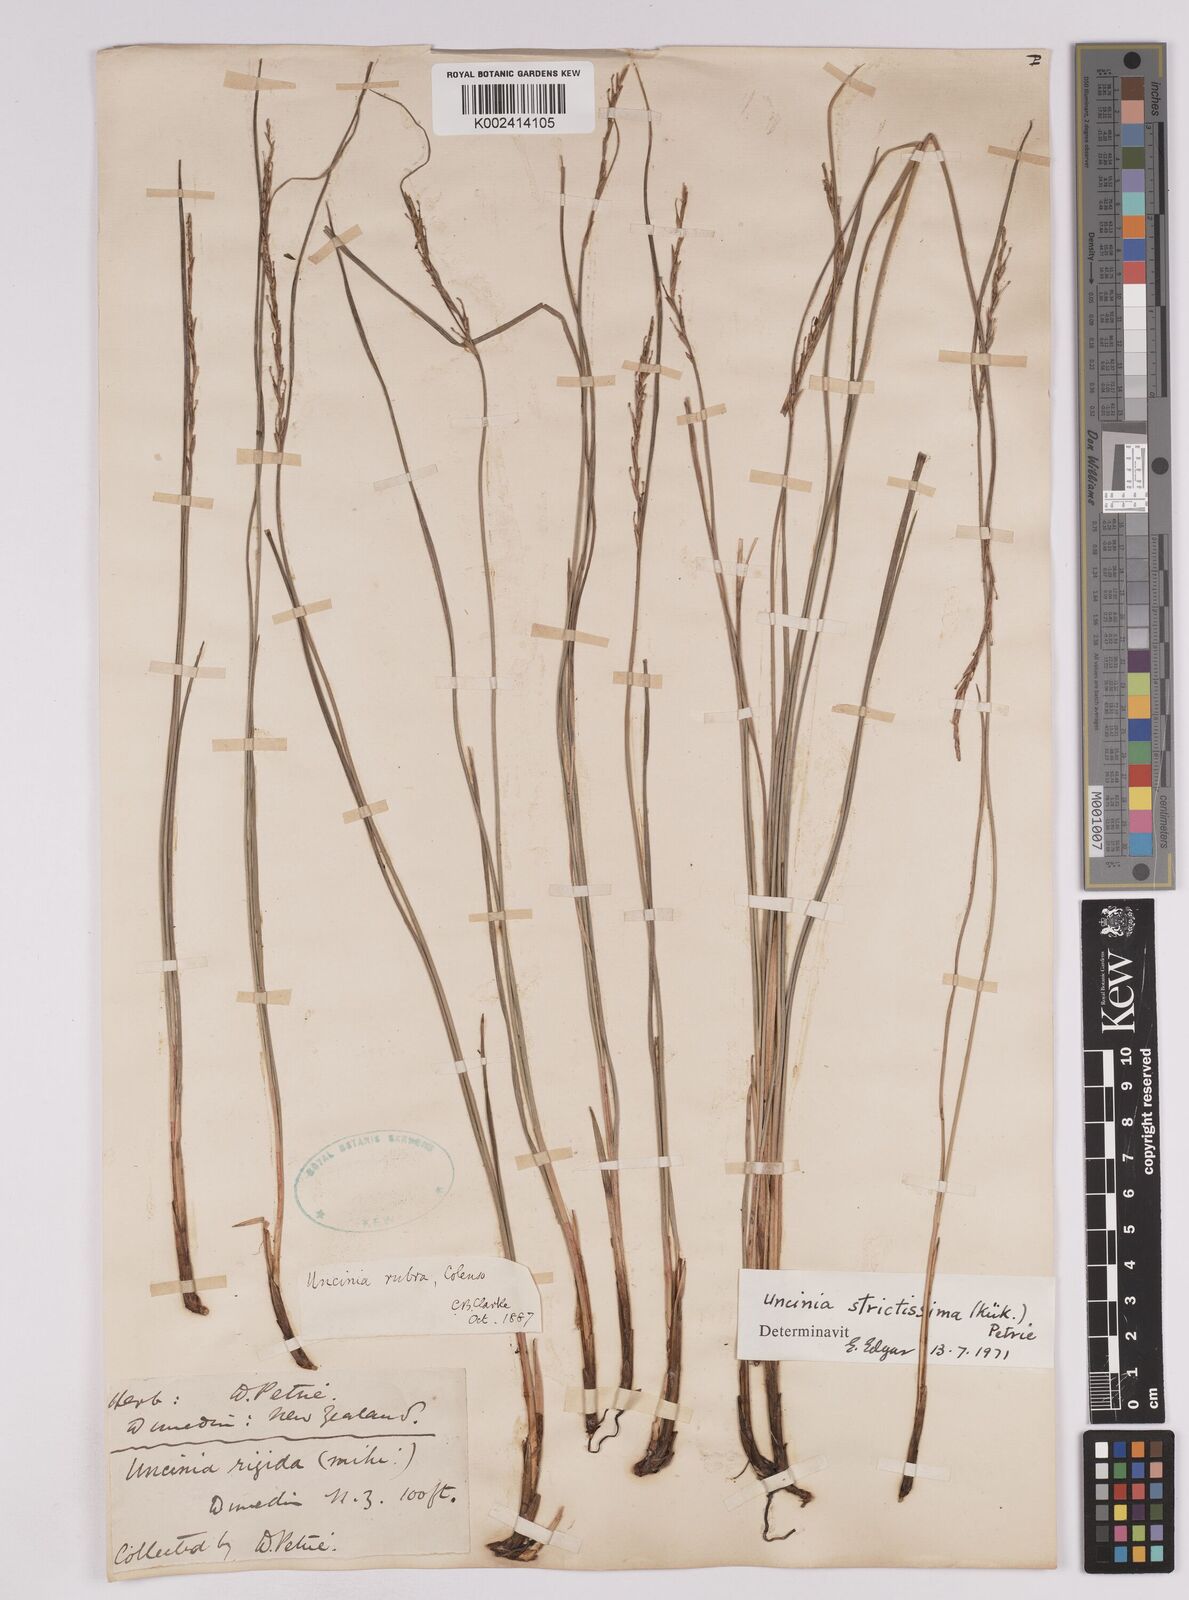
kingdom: Plantae
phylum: Tracheophyta
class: Liliopsida
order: Poales
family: Cyperaceae
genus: Carex
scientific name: Carex strictissima
